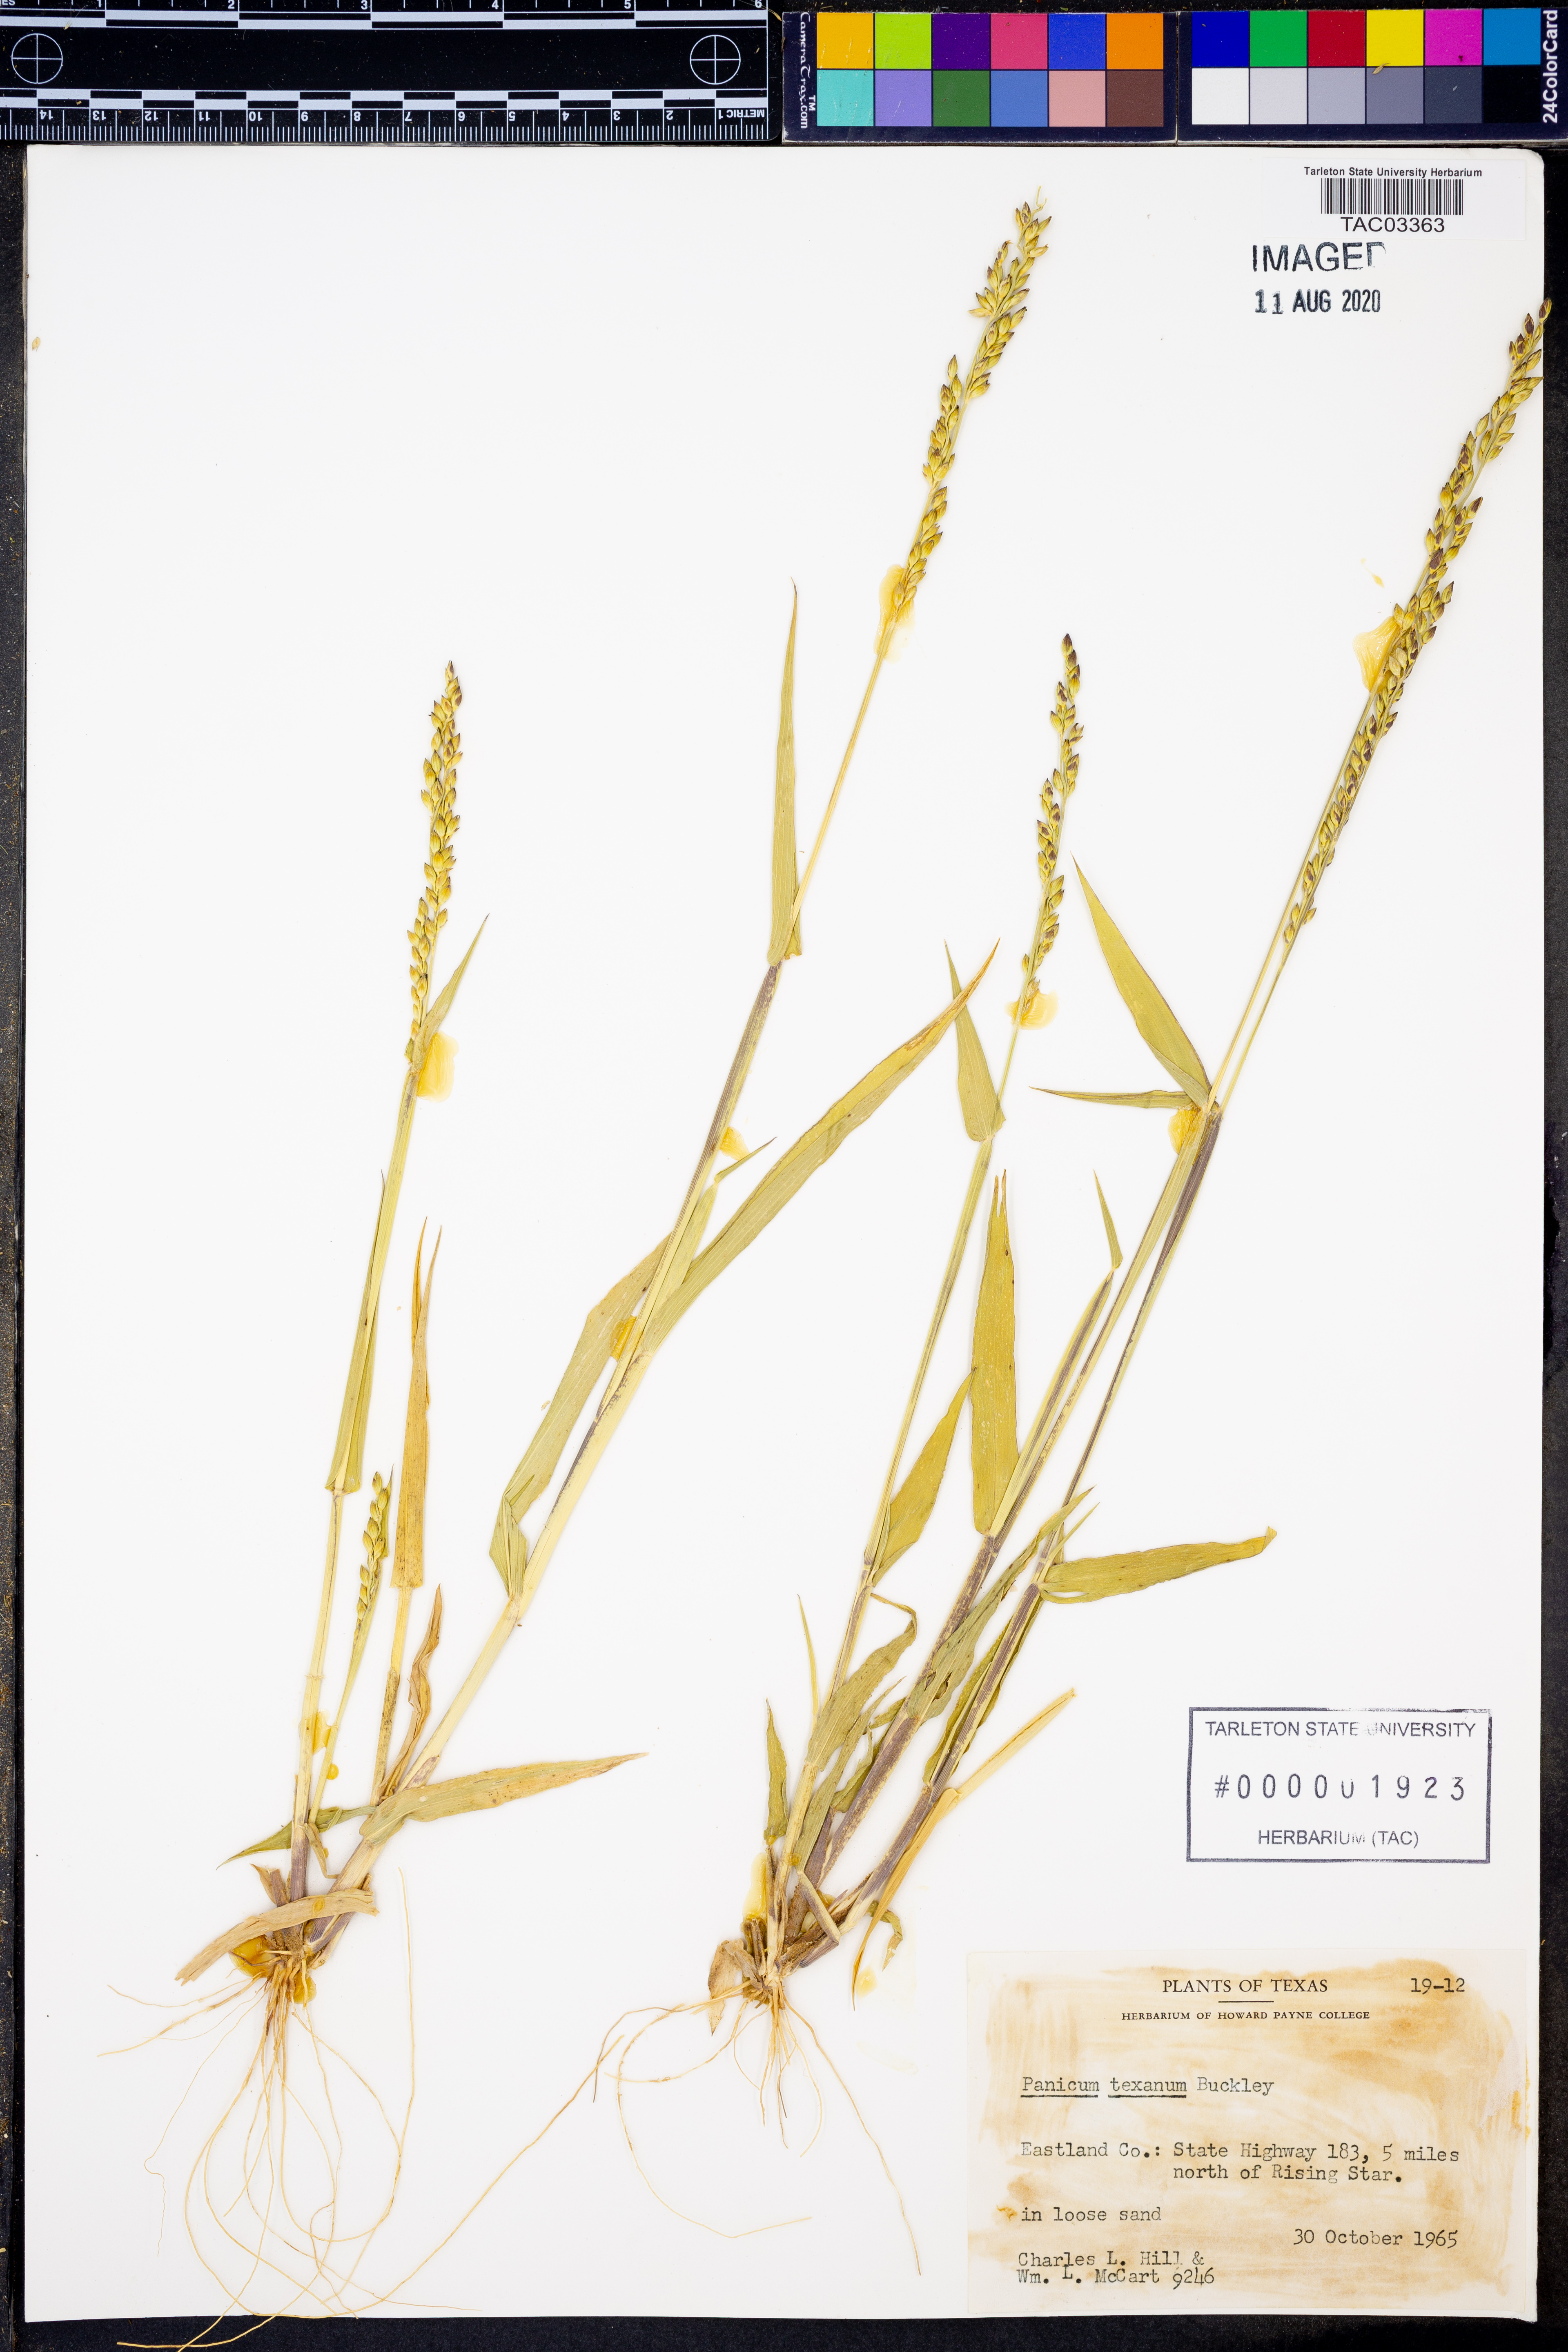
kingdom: Plantae
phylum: Tracheophyta
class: Liliopsida
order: Poales
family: Poaceae
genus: Urochloa
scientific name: Urochloa texana
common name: Texas millet
